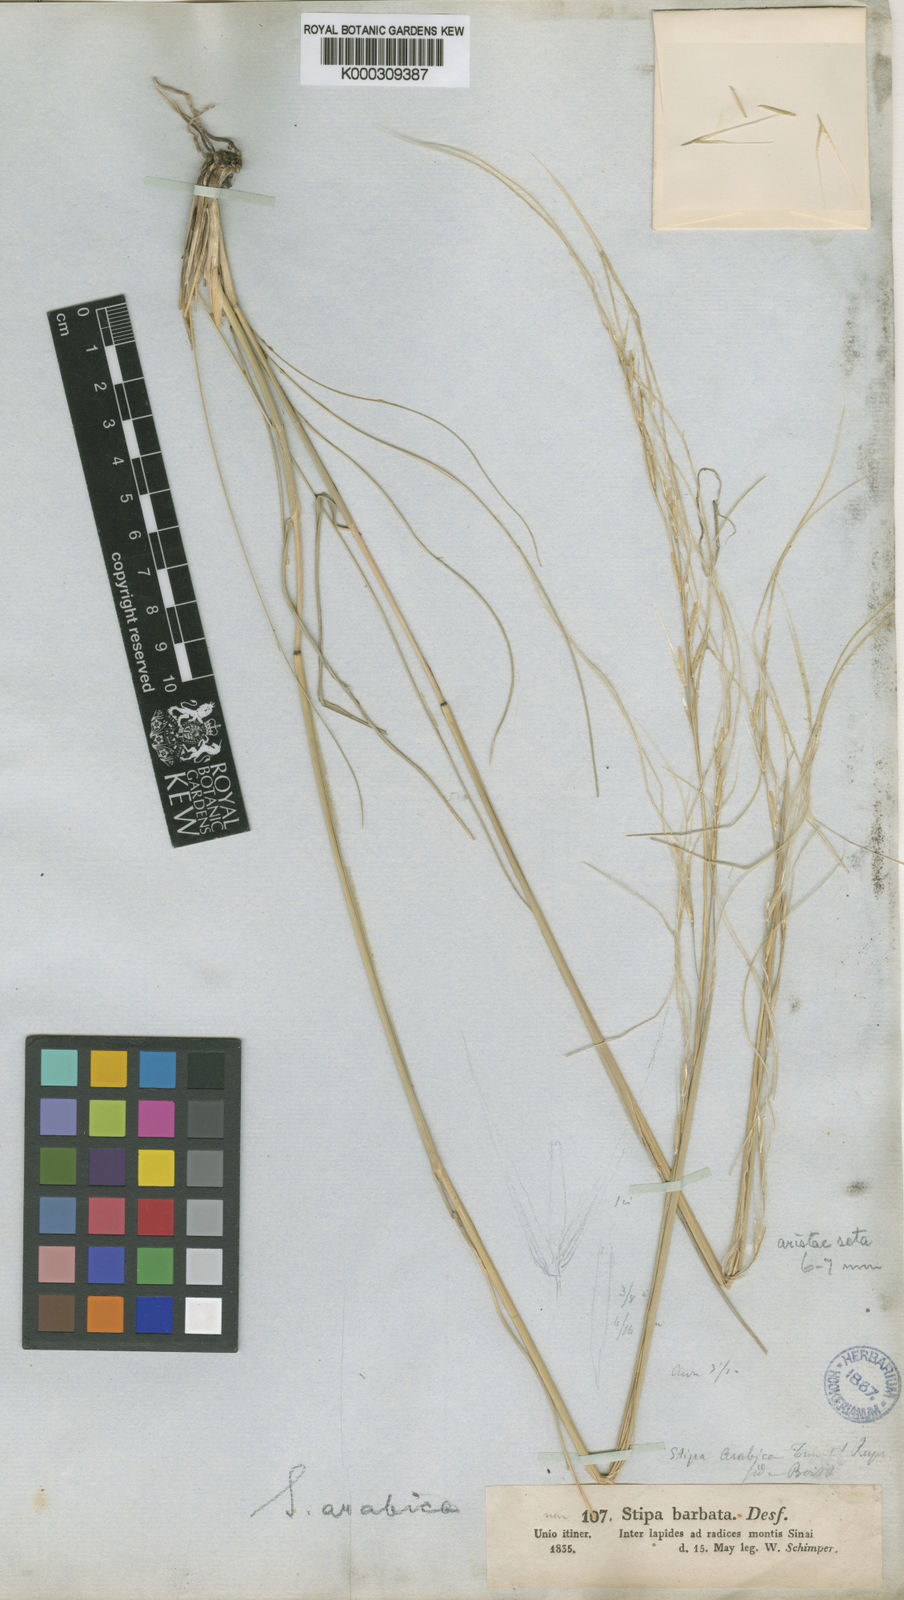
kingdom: Plantae
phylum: Tracheophyta
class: Liliopsida
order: Poales
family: Poaceae
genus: Stipa
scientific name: Stipa arabica
